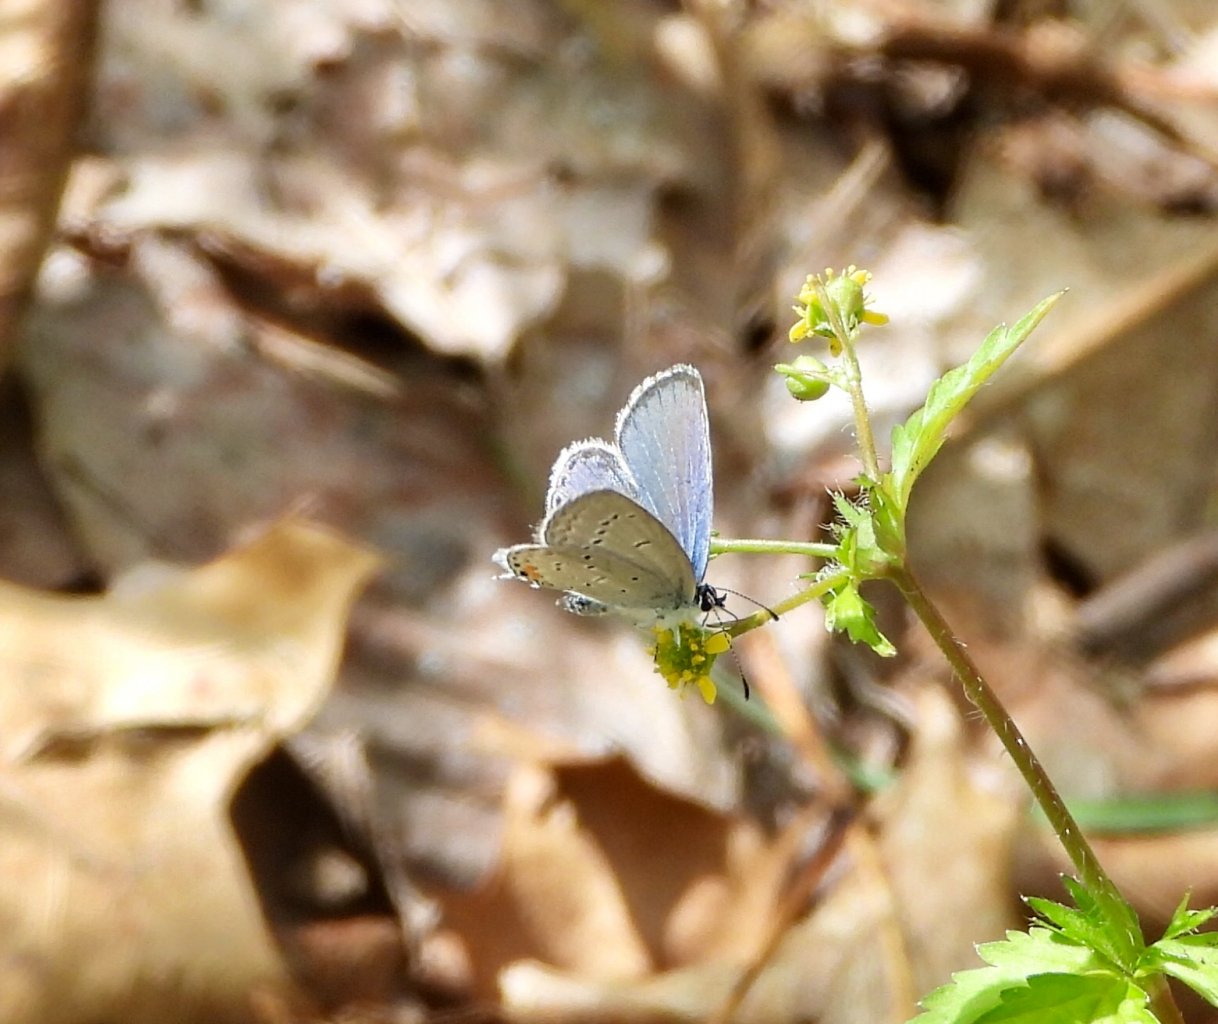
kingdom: Animalia
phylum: Arthropoda
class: Insecta
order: Lepidoptera
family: Lycaenidae
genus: Elkalyce
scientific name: Elkalyce comyntas
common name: Eastern Tailed-Blue
